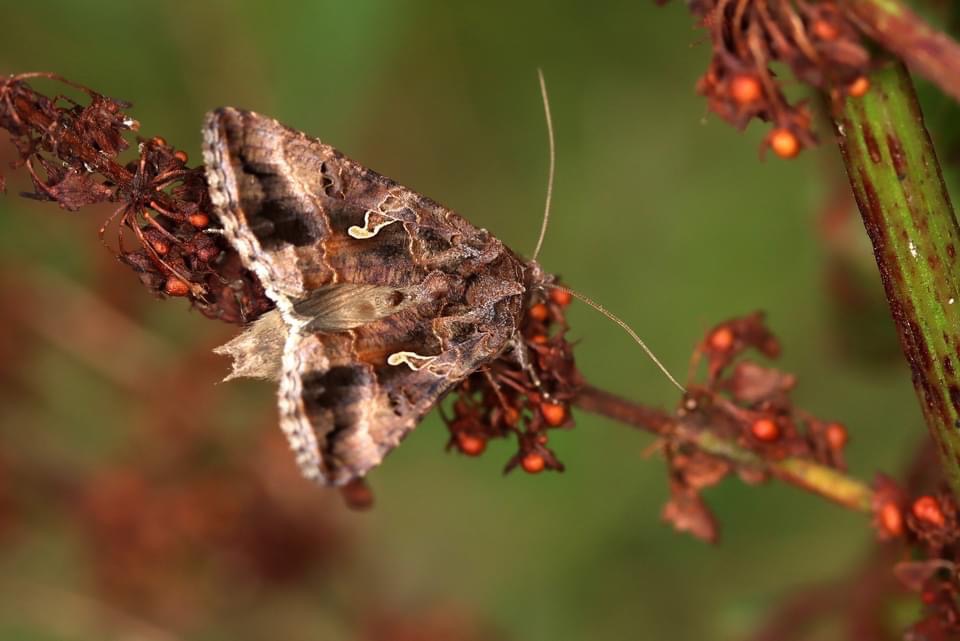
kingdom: Animalia
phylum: Arthropoda
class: Insecta
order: Lepidoptera
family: Noctuidae
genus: Autographa
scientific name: Autographa gamma
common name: Gammaugle
